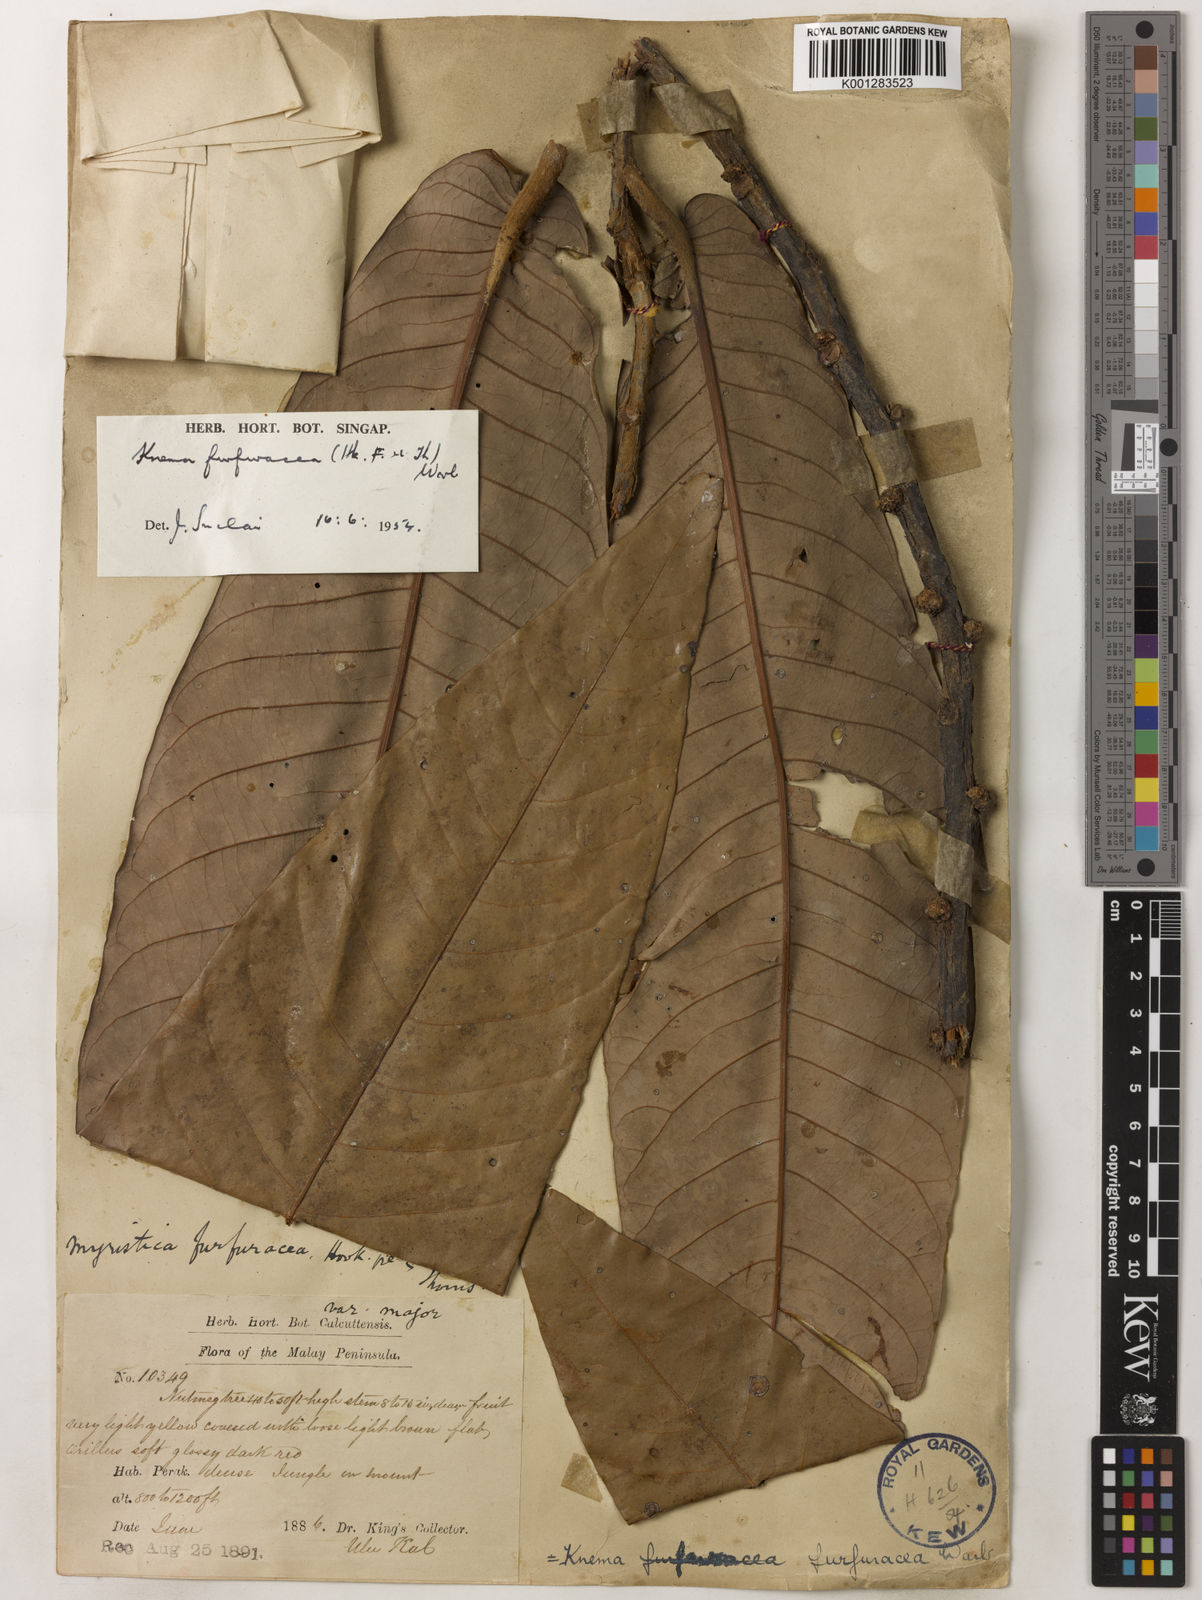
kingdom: Plantae
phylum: Tracheophyta
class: Magnoliopsida
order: Magnoliales
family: Myristicaceae
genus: Knema
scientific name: Knema furfuracea
